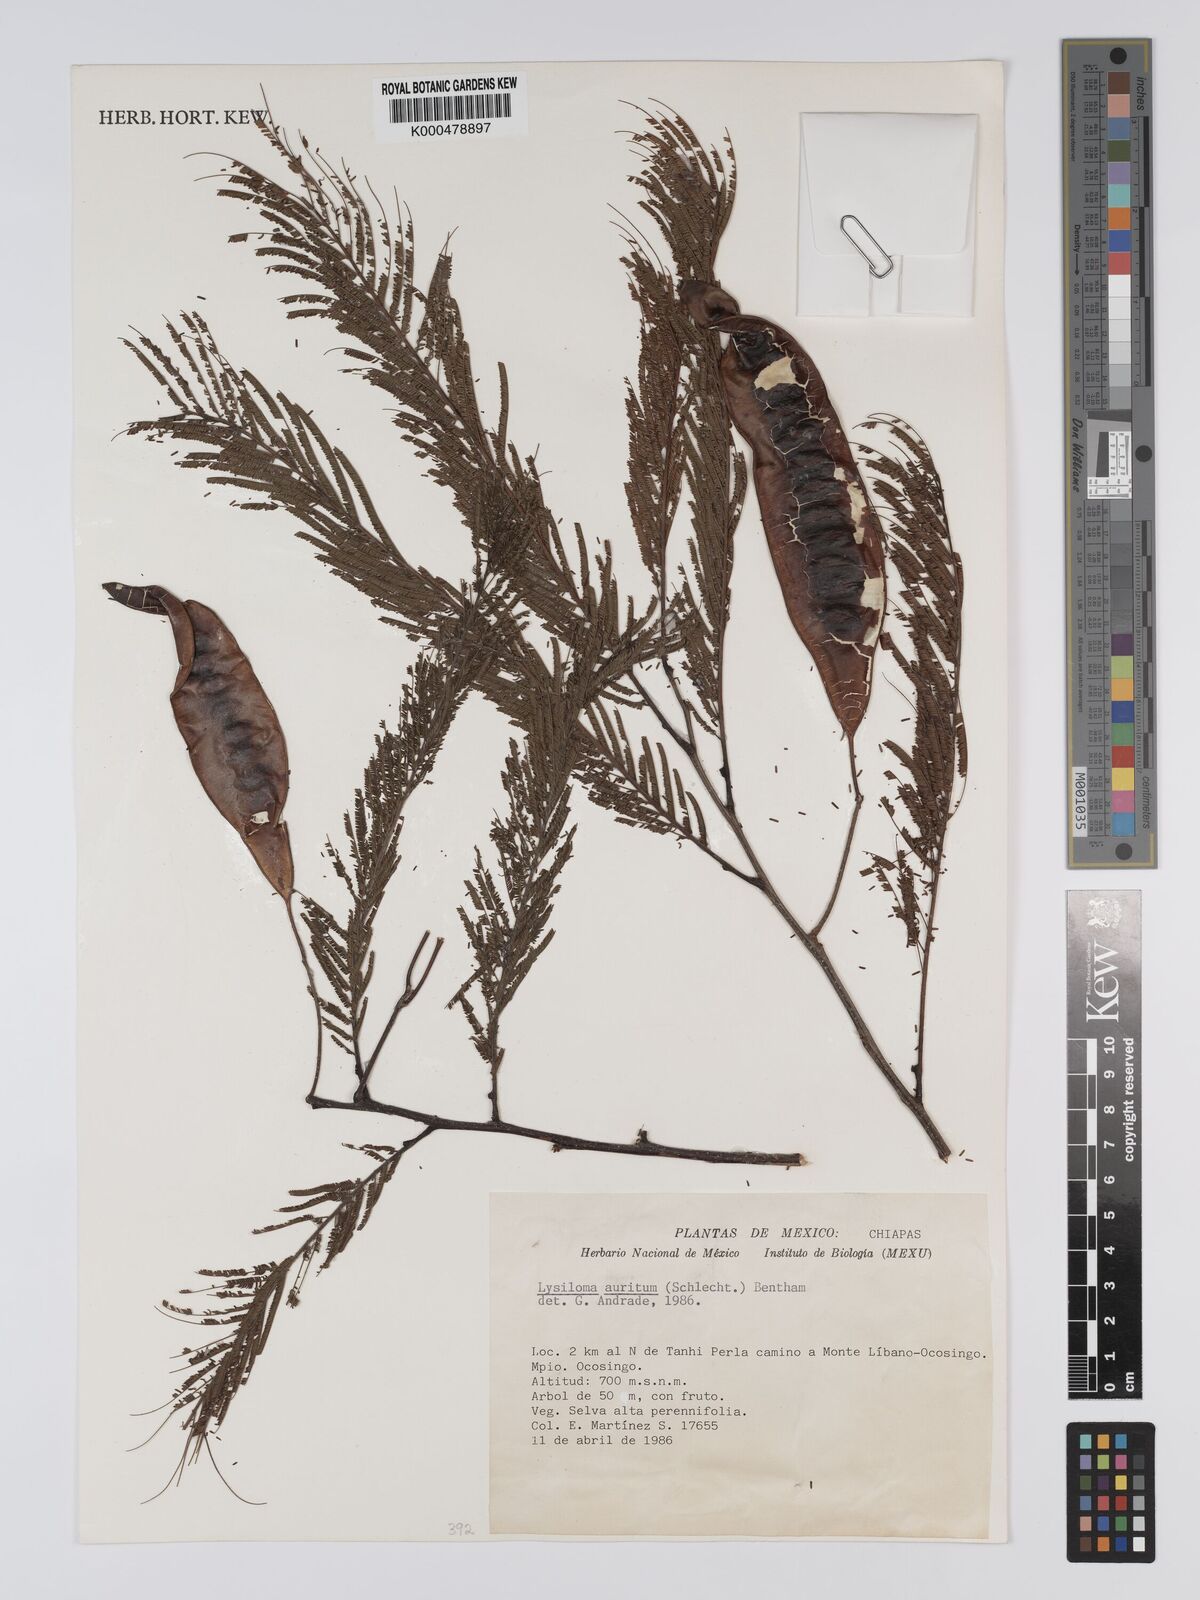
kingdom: Plantae
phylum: Tracheophyta
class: Magnoliopsida
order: Fabales
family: Fabaceae
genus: Lysiloma
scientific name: Lysiloma auritum
